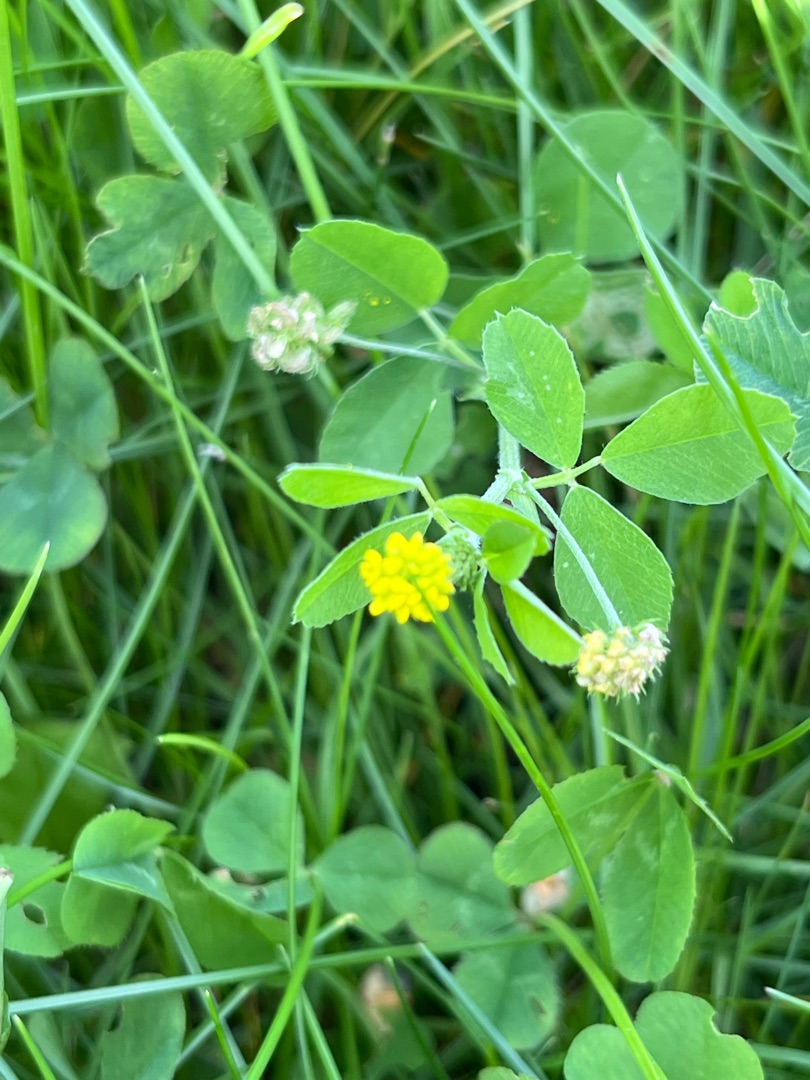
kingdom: Plantae
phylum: Tracheophyta
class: Magnoliopsida
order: Fabales
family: Fabaceae
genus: Medicago
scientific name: Medicago lupulina
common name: Humle-sneglebælg
